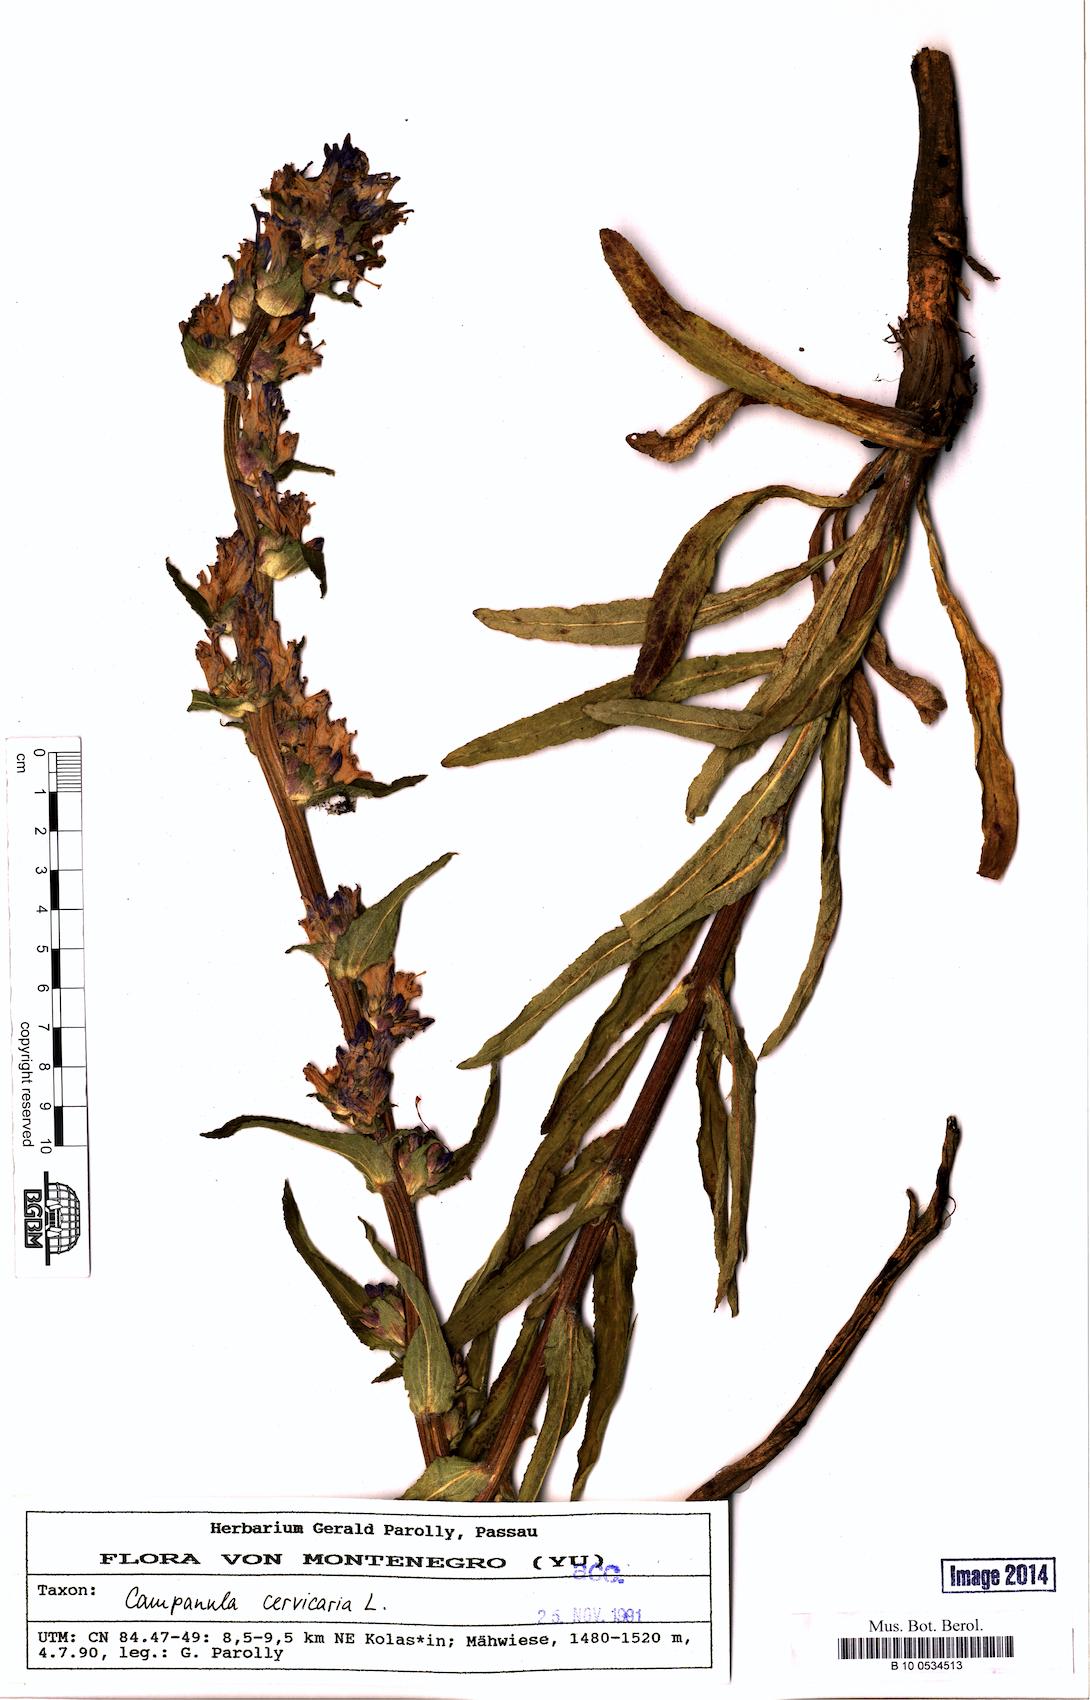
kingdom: Plantae
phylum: Tracheophyta
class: Magnoliopsida
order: Asterales
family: Campanulaceae
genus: Campanula
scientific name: Campanula cervicaria
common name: Bristly bellflower
